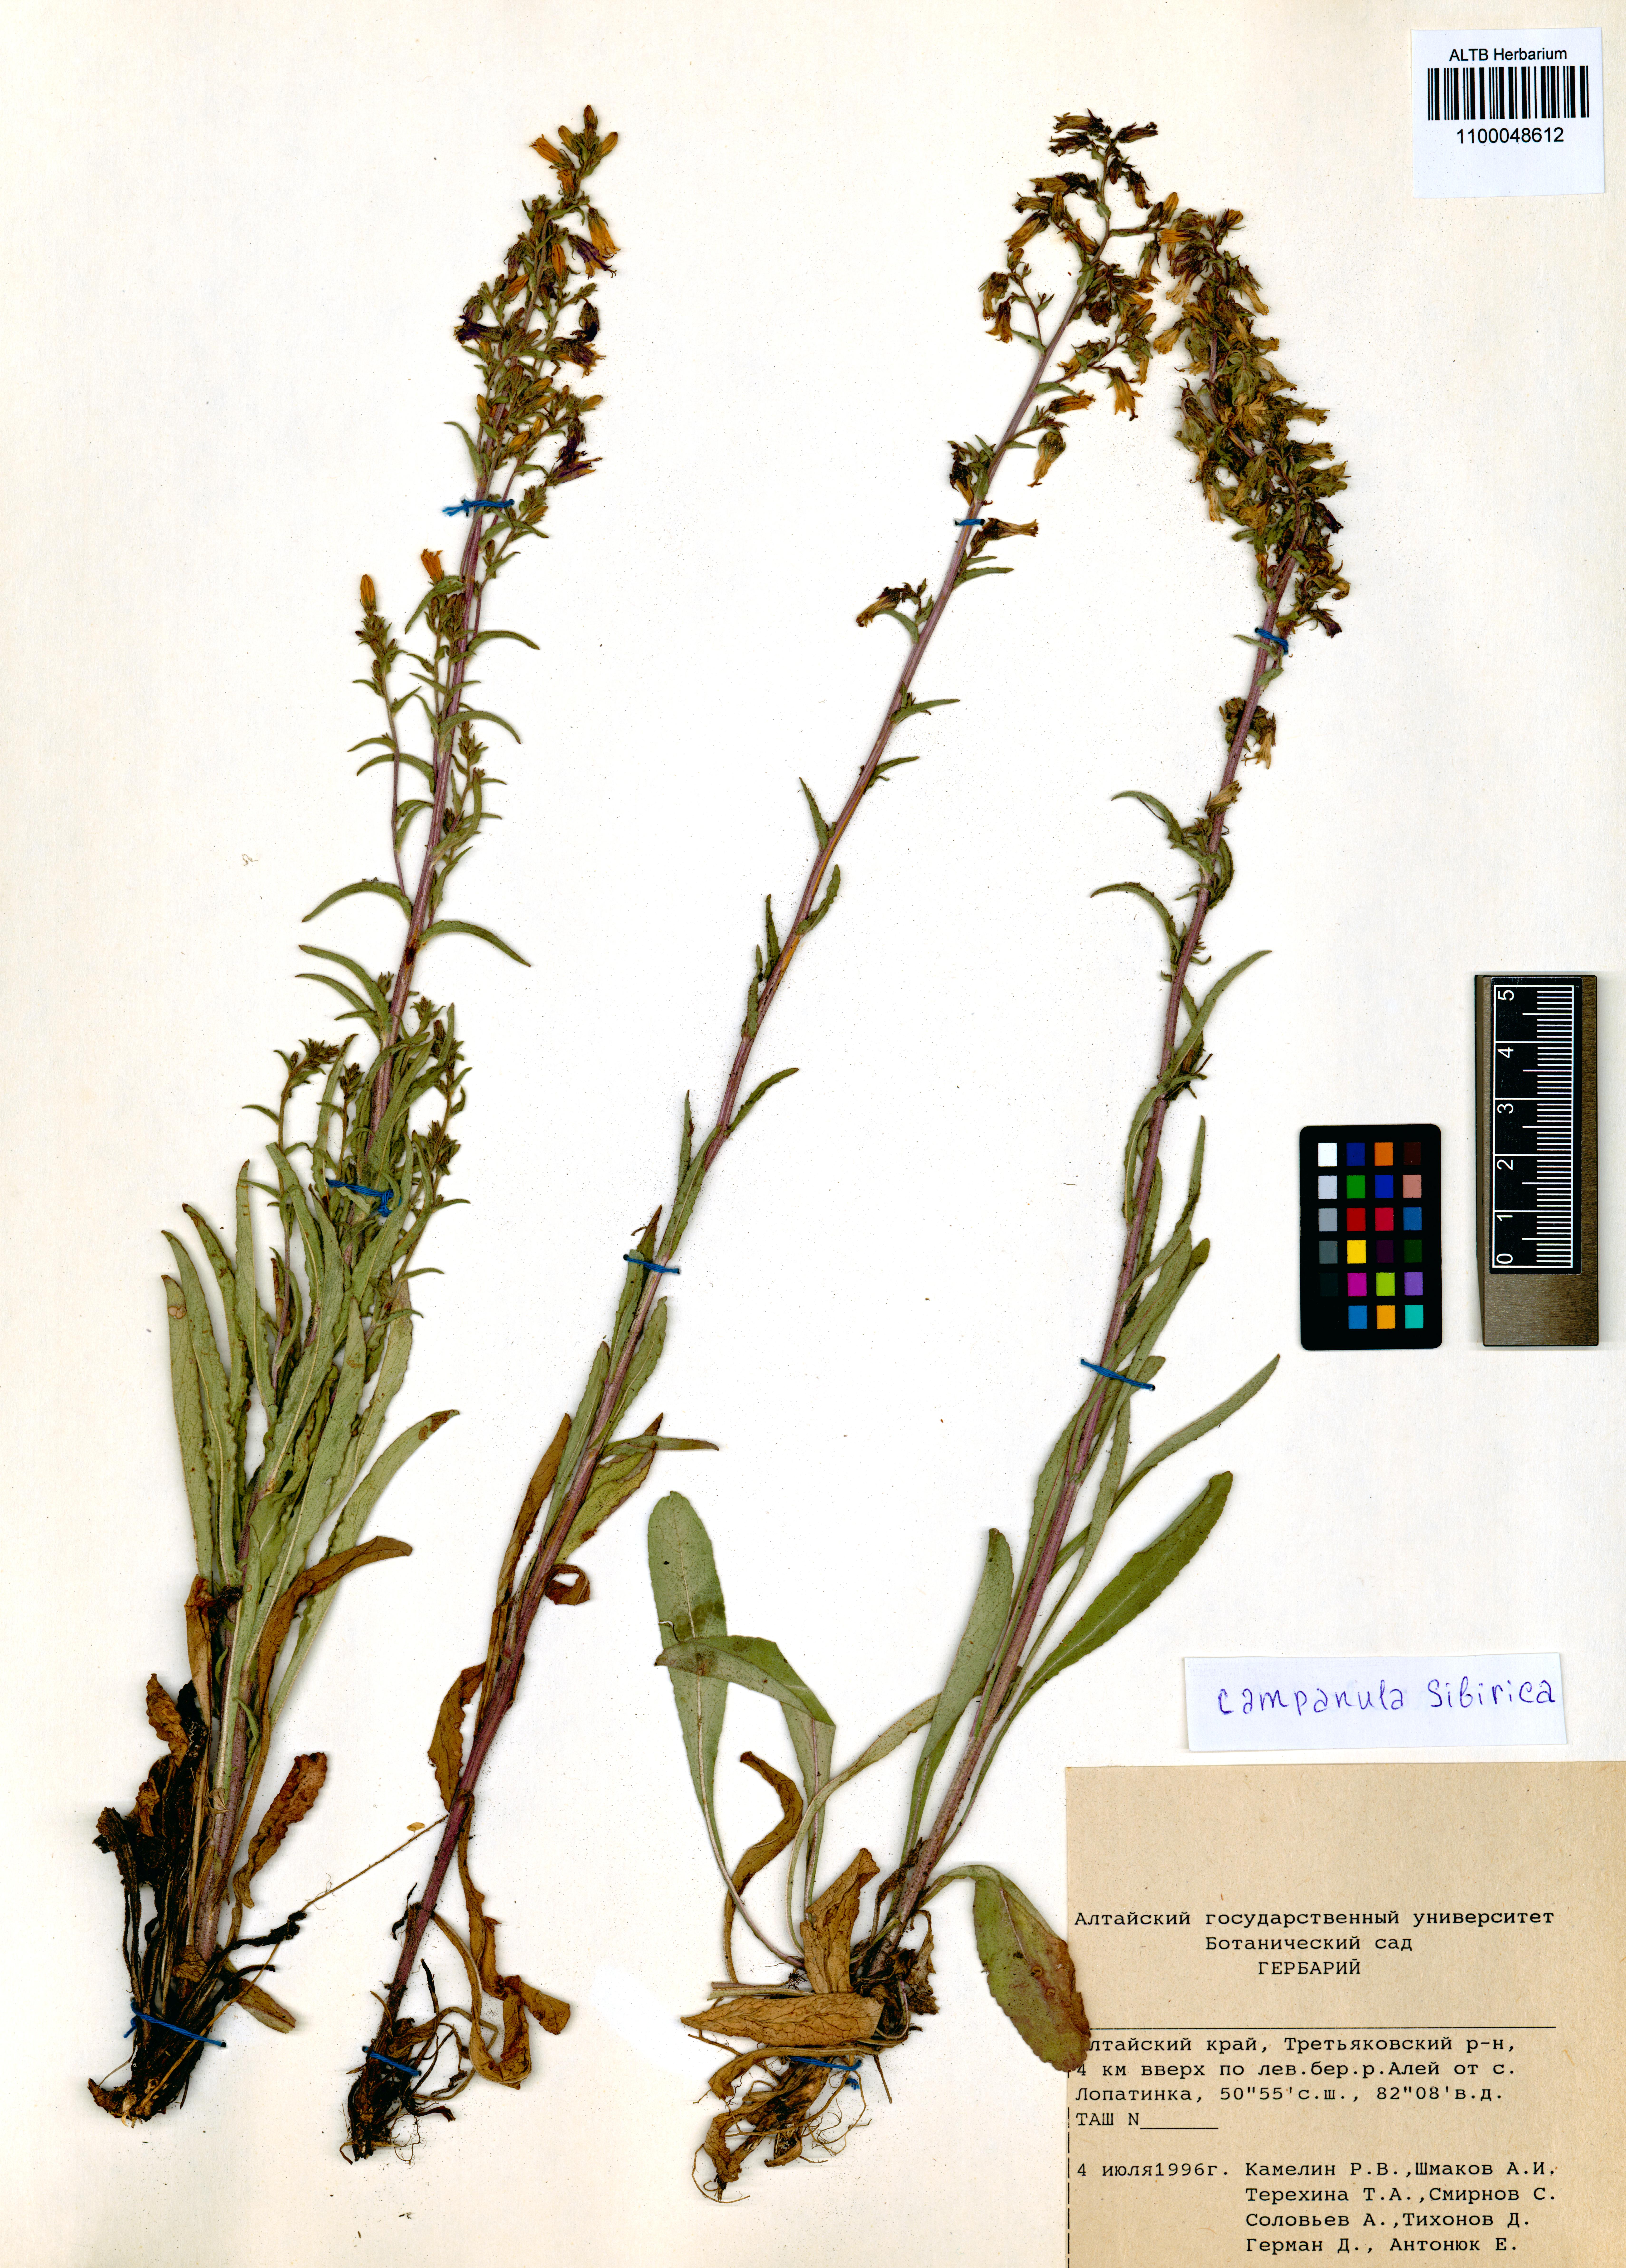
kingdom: Plantae
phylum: Tracheophyta
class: Magnoliopsida
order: Asterales
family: Campanulaceae
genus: Campanula
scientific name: Campanula sibirica
